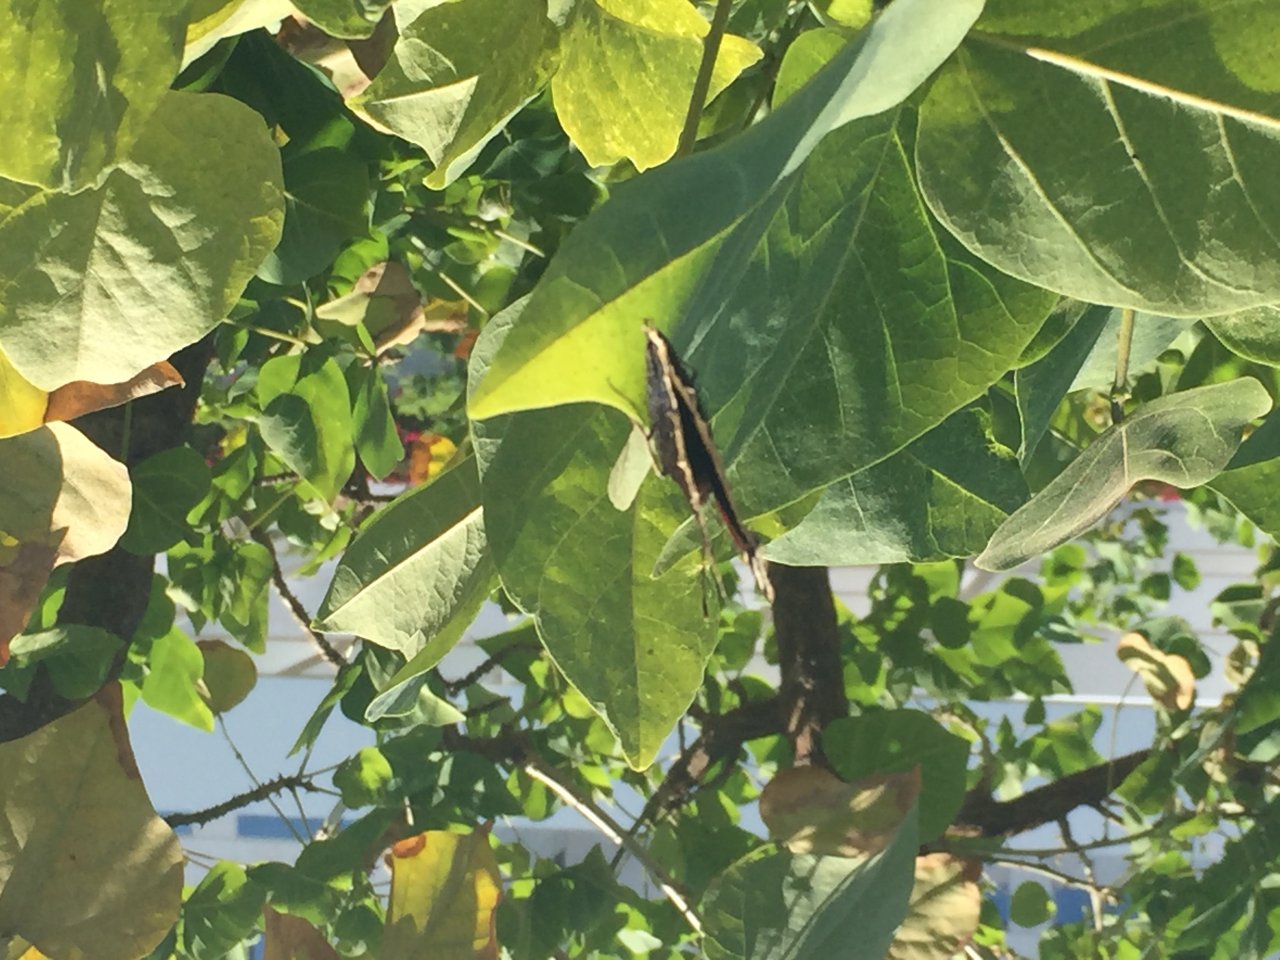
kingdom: Animalia
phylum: Arthropoda
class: Insecta
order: Lepidoptera
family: Nymphalidae
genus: Nymphalis
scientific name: Nymphalis antiopa
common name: Mourning Cloak
